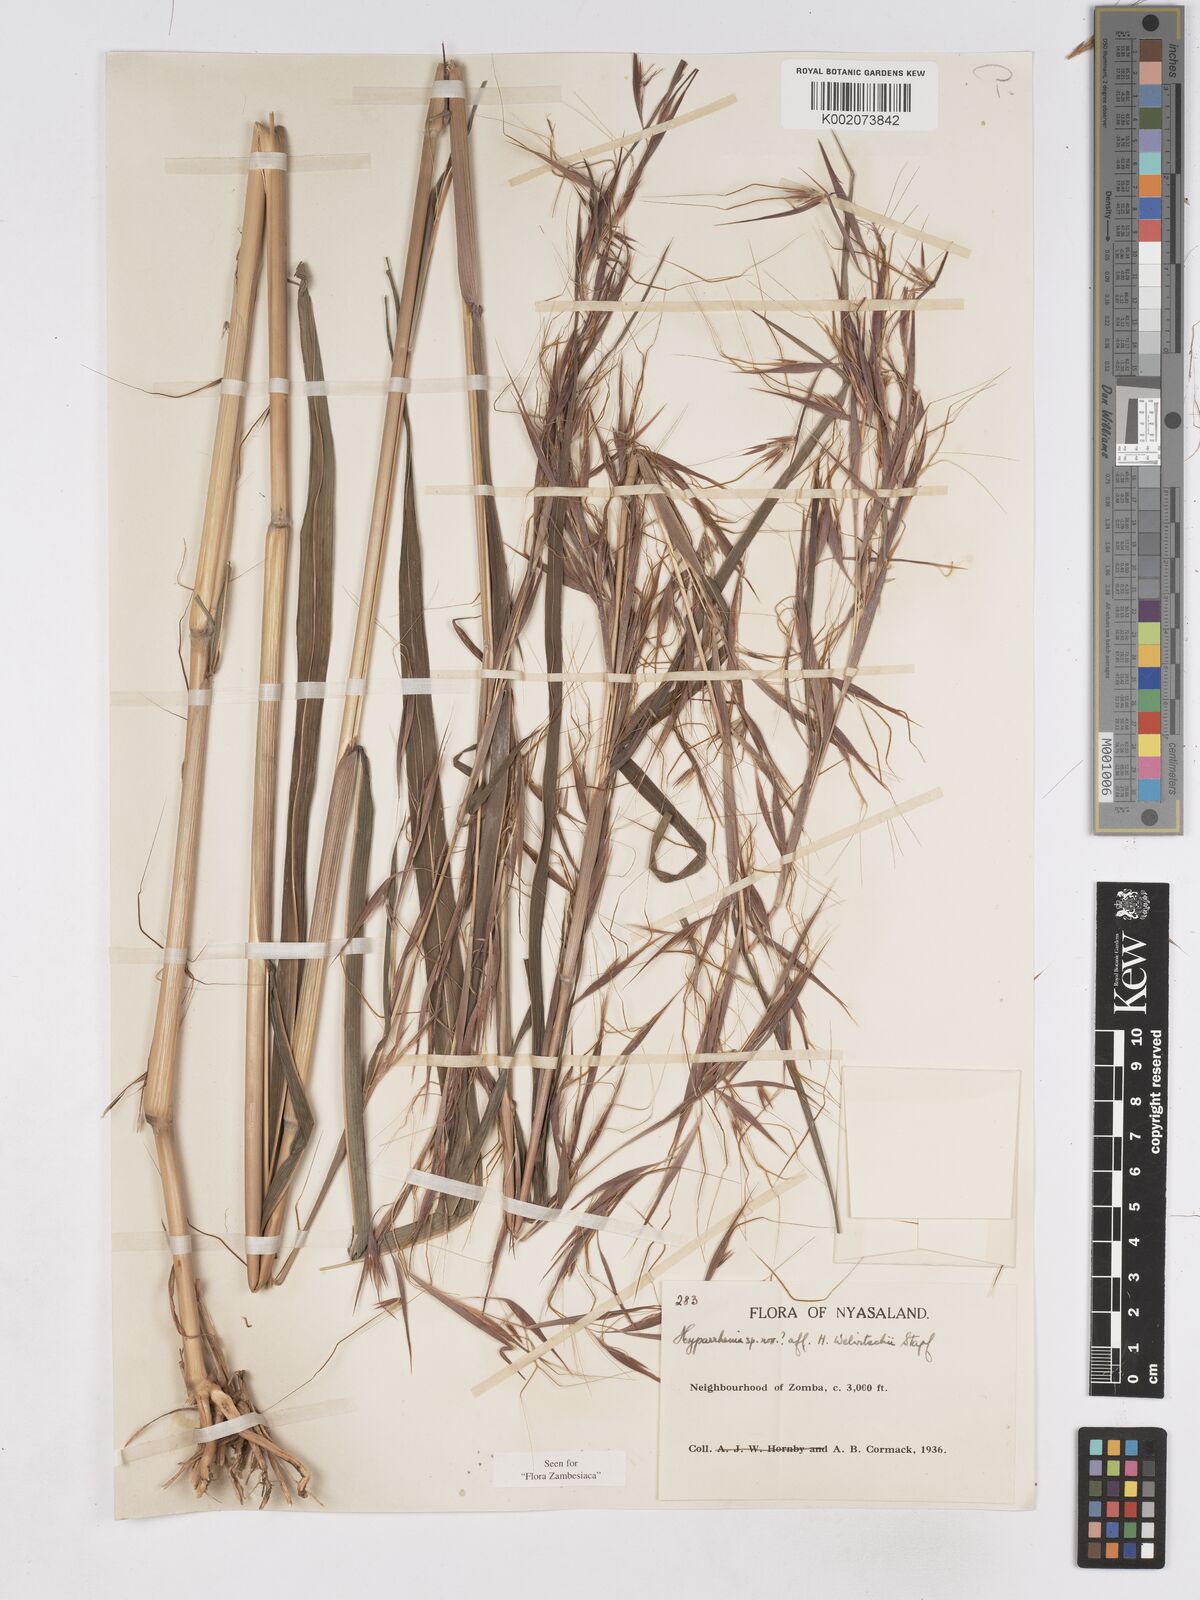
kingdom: Plantae
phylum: Tracheophyta
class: Liliopsida
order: Poales
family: Poaceae
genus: Hyparrhenia
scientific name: Hyparrhenia welwitschii
